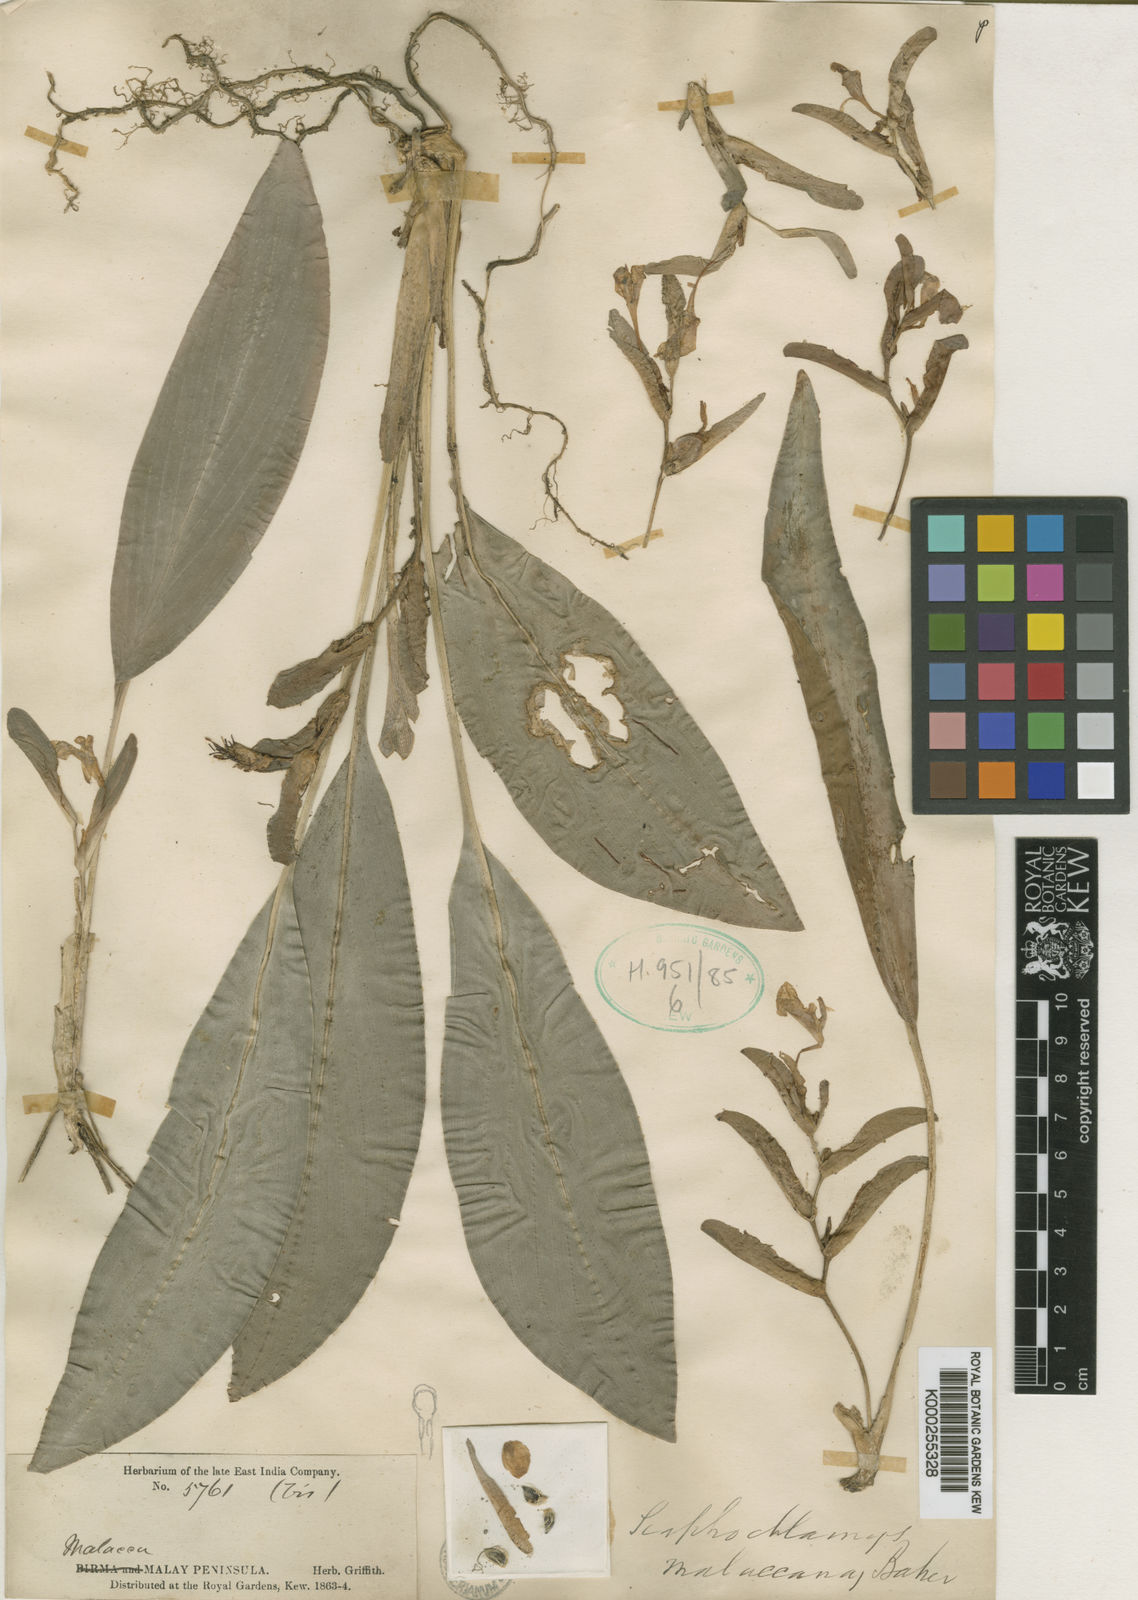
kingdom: Plantae
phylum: Tracheophyta
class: Liliopsida
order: Zingiberales
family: Zingiberaceae
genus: Scaphochlamys
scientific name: Scaphochlamys malaccana
